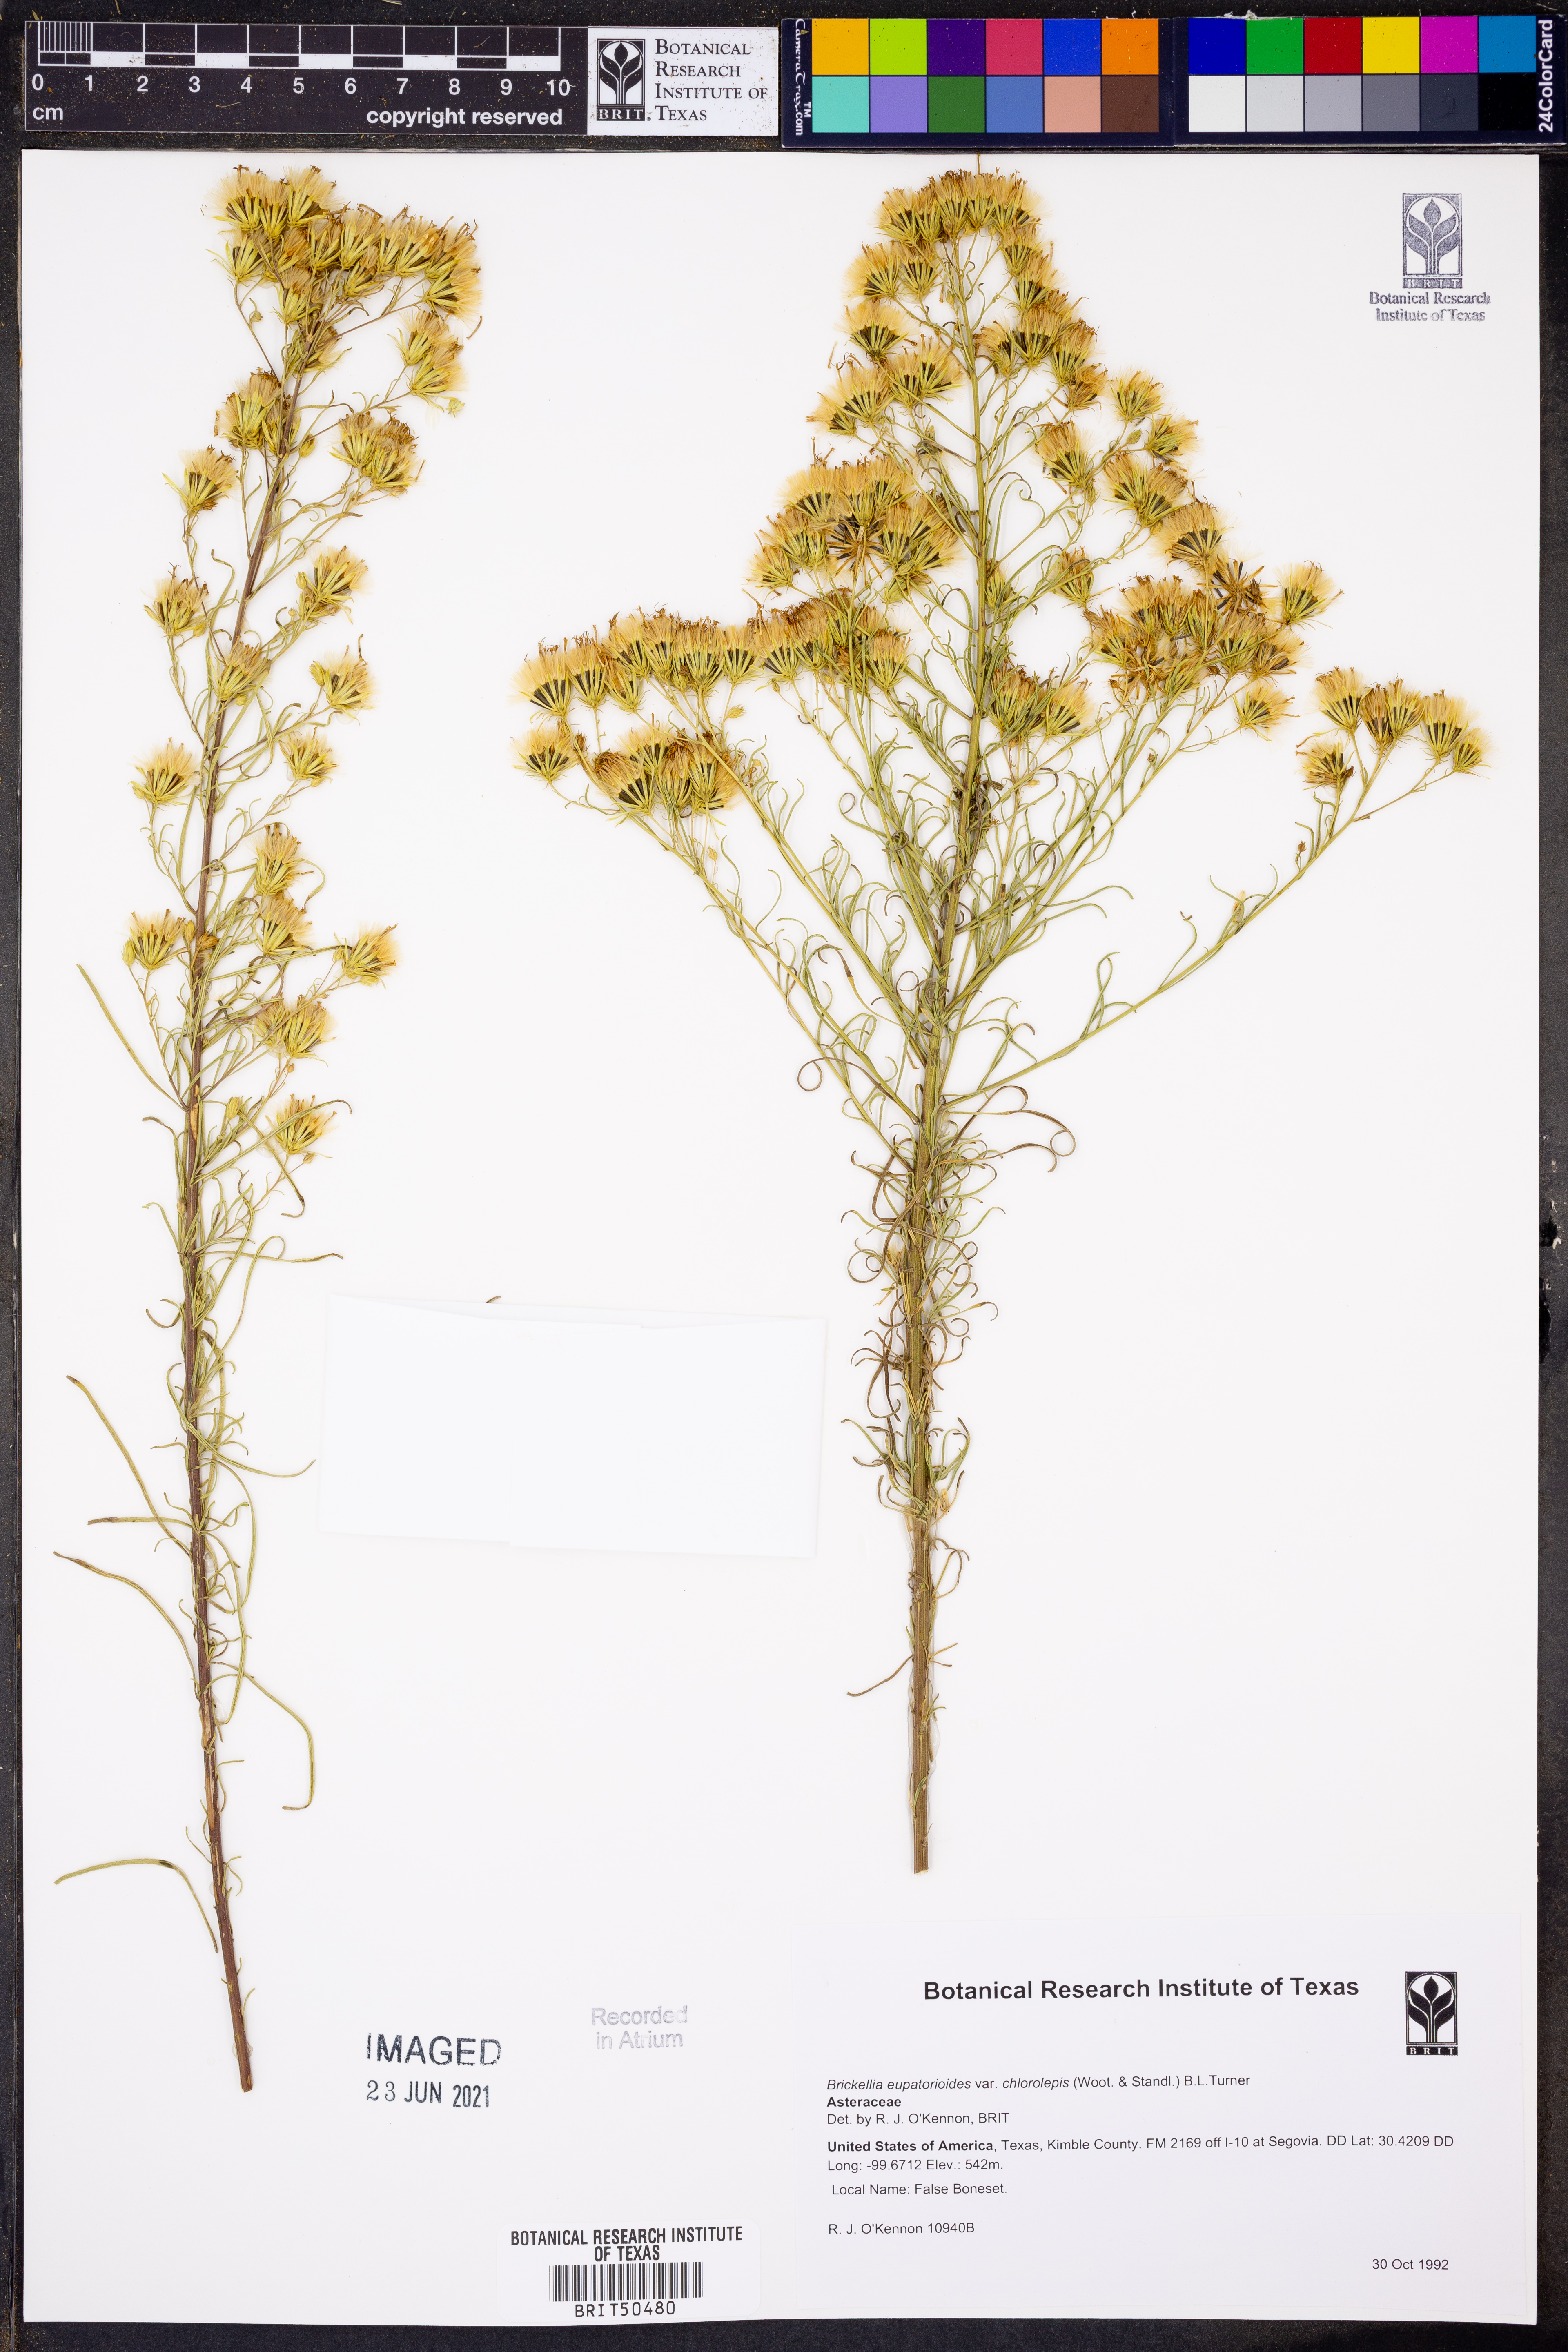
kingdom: Plantae
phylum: Tracheophyta
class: Magnoliopsida
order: Asterales
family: Asteraceae
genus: Brickellia
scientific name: Brickellia leptophylla
